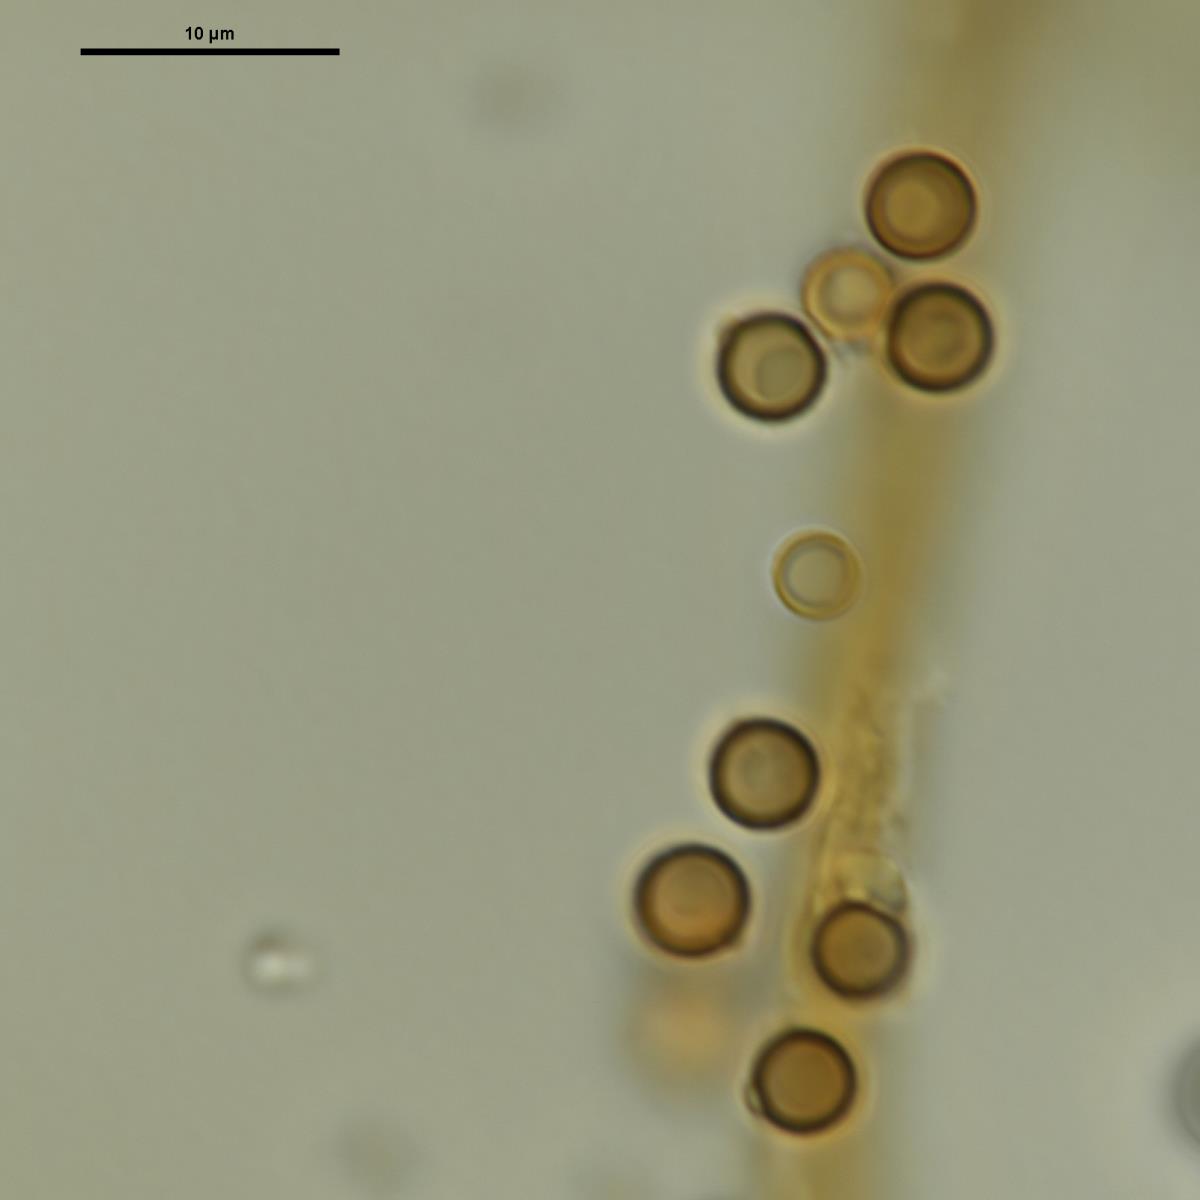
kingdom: Fungi
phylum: Basidiomycota
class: Agaricomycetes
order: Agaricales
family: Lycoperdaceae
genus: Lycoperdon
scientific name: Lycoperdon lividum
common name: Grassland puffball
